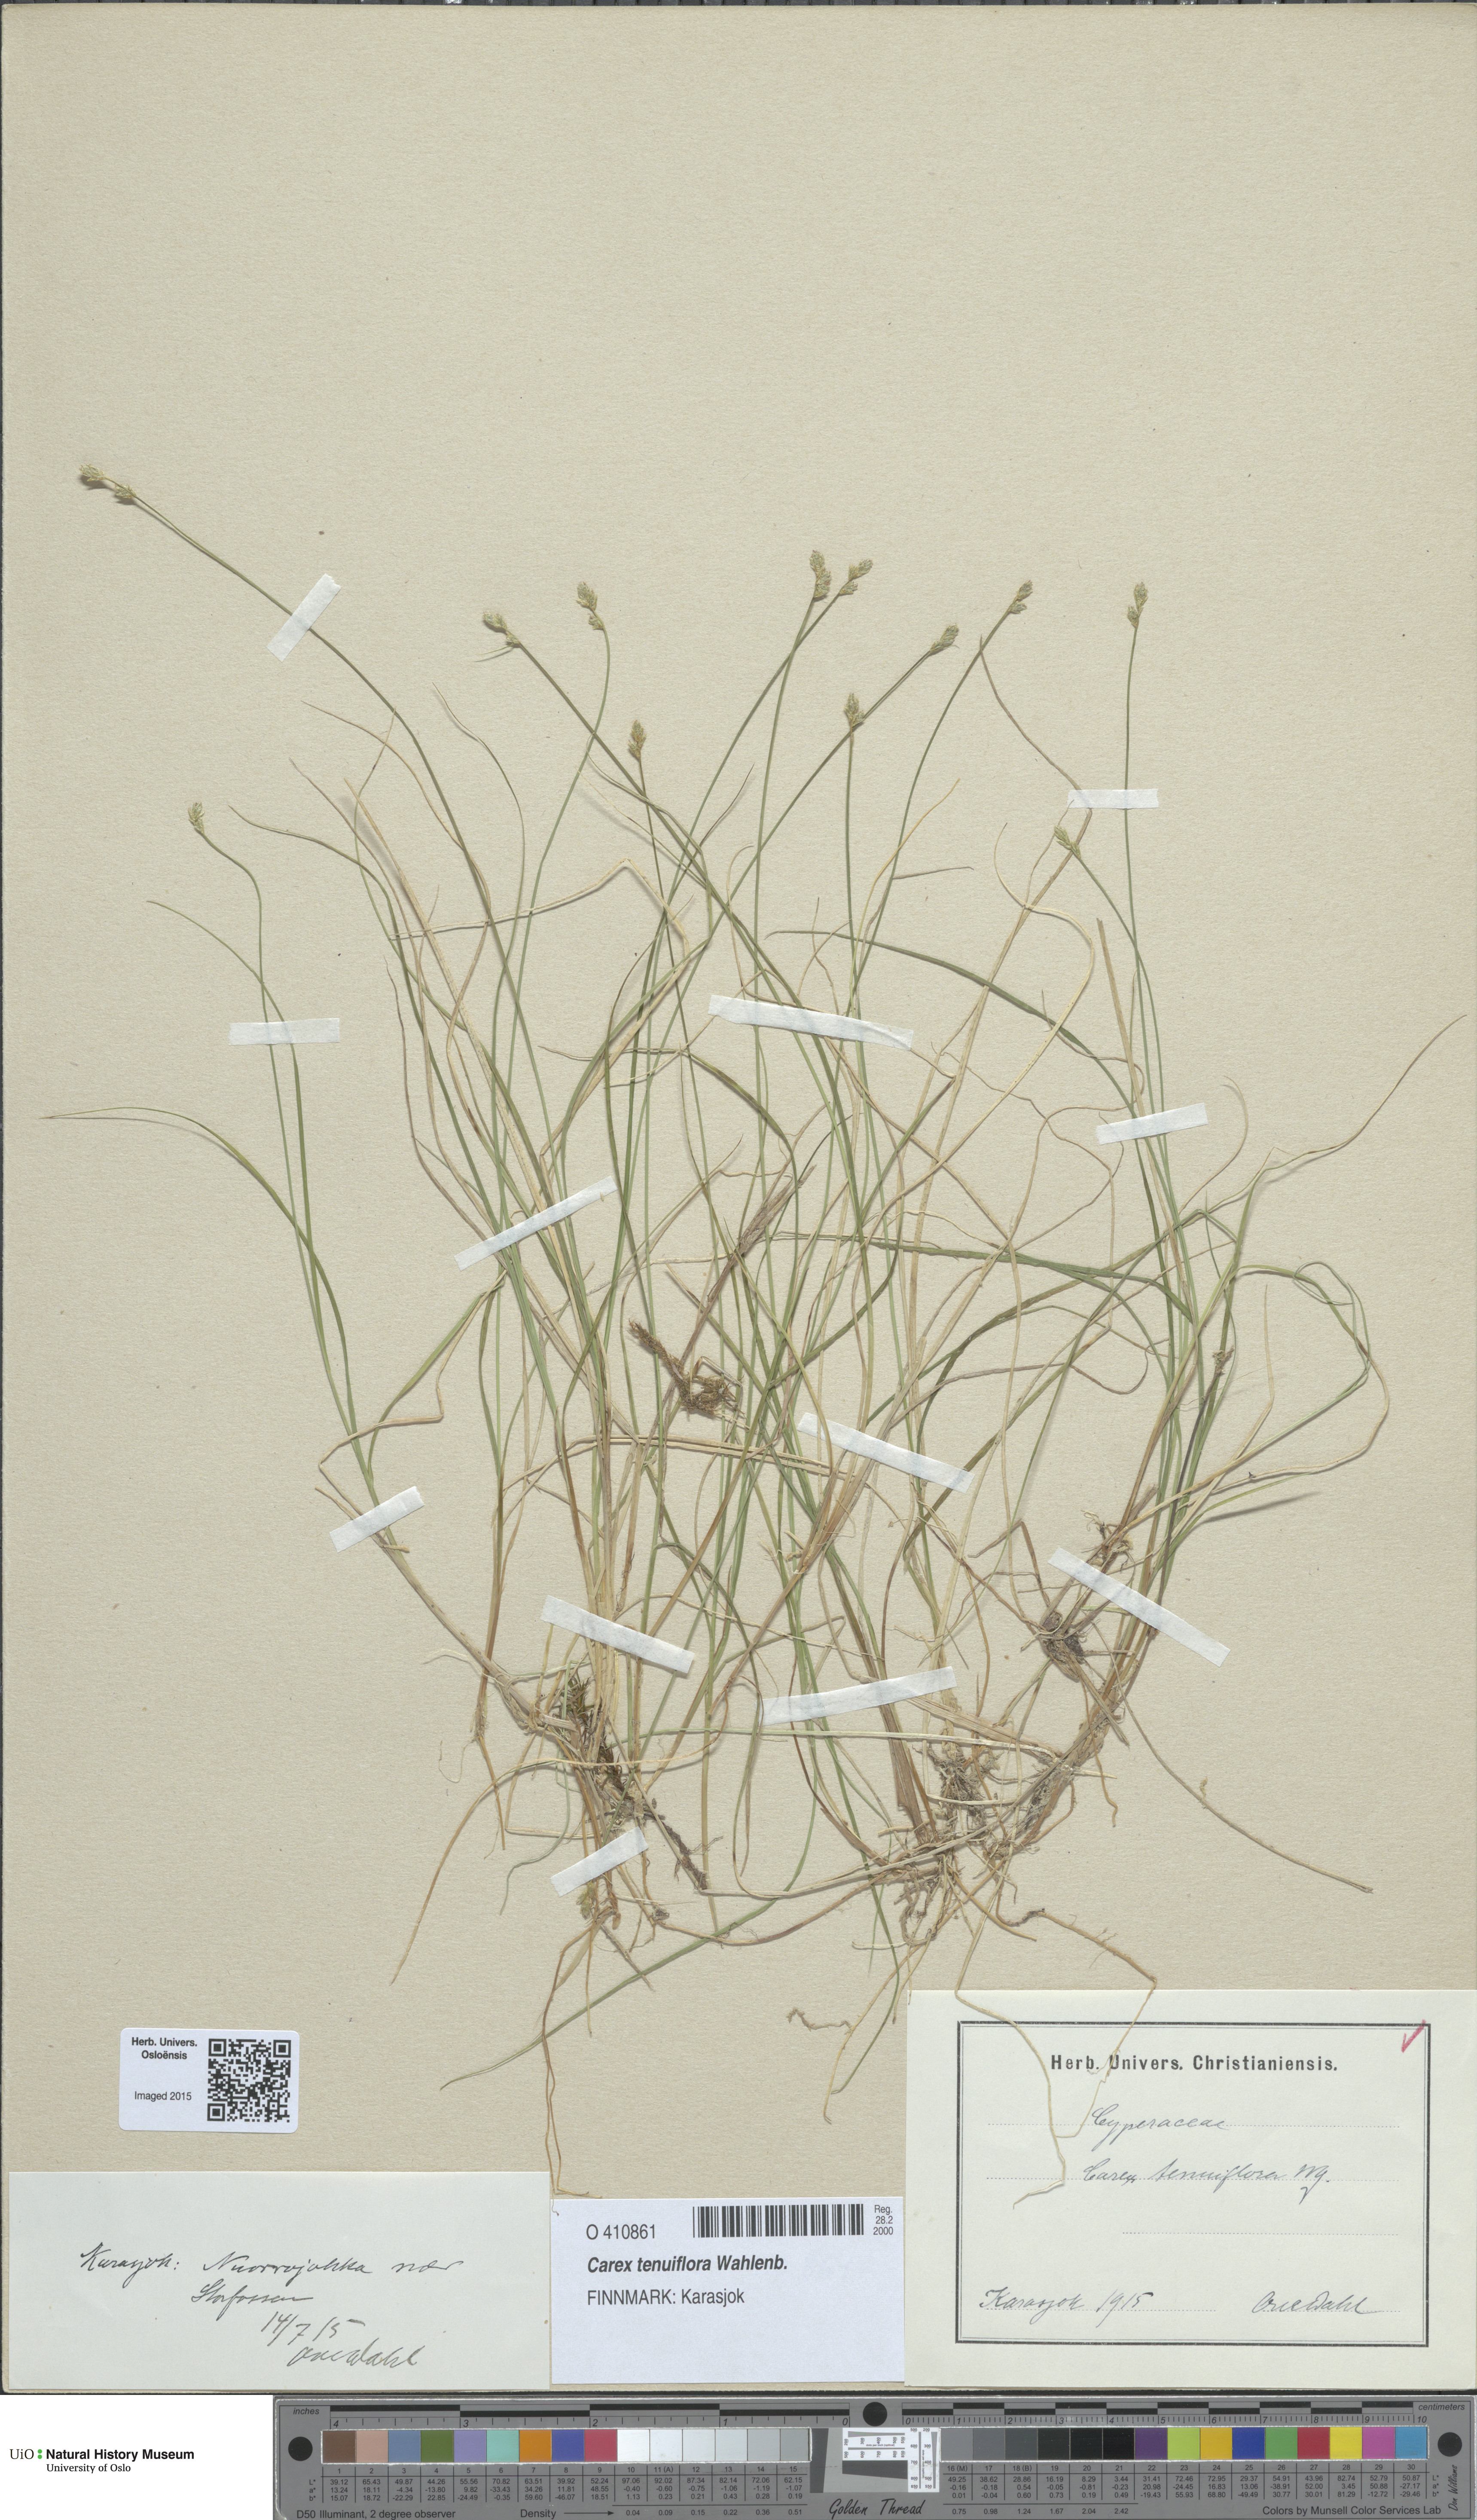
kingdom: Plantae
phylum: Tracheophyta
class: Liliopsida
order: Poales
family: Cyperaceae
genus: Carex
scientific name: Carex tenuiflora
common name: Sparse-flowered sedge
